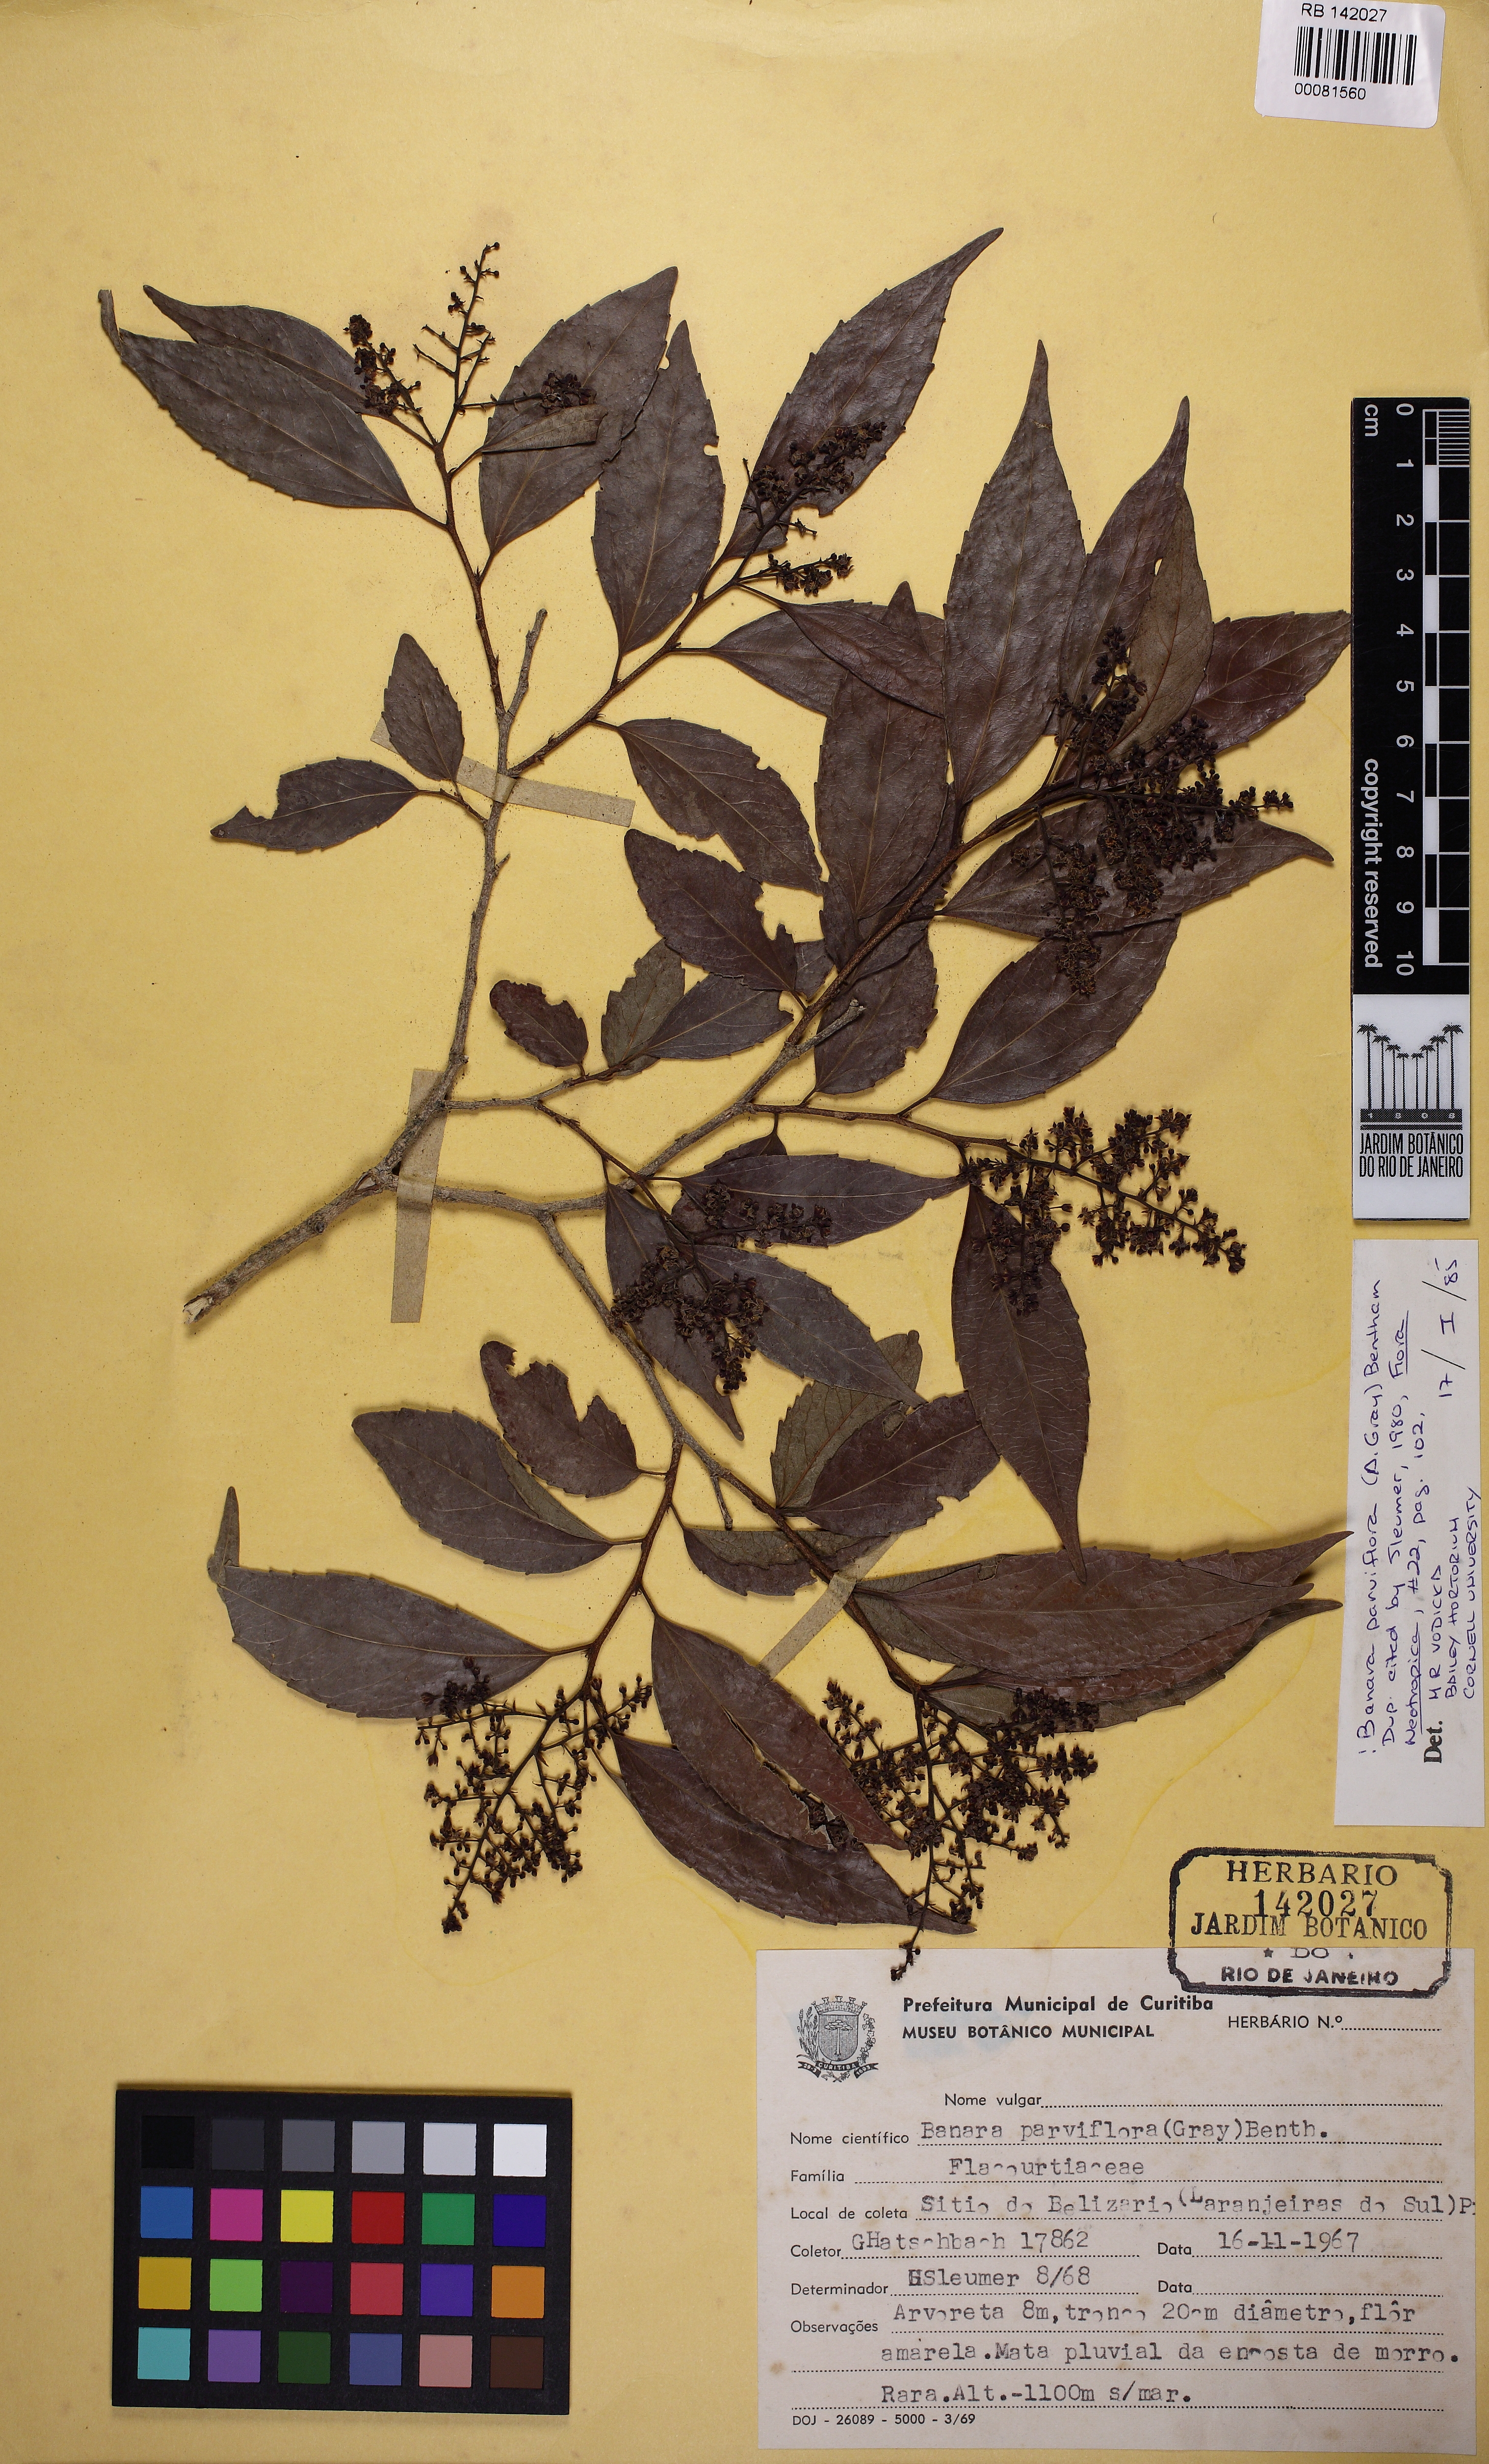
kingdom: Plantae
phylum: Tracheophyta
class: Magnoliopsida
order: Malpighiales
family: Salicaceae
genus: Banara
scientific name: Banara parviflora
